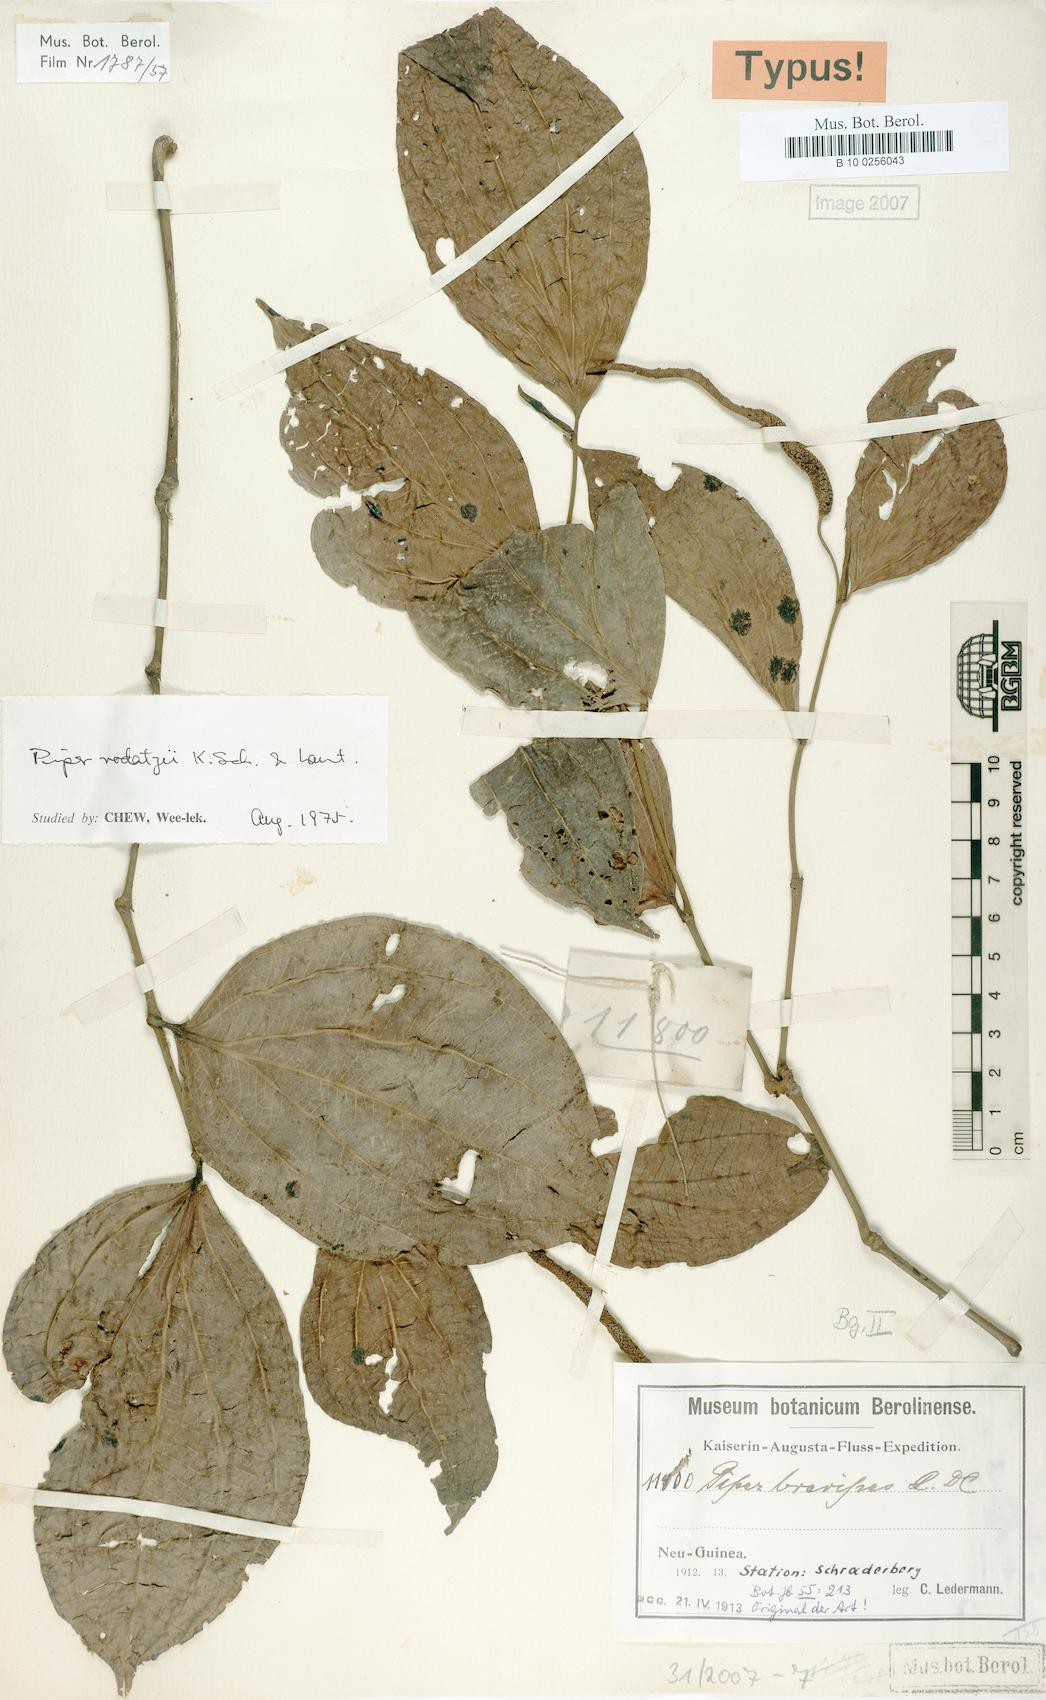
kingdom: Plantae
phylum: Tracheophyta
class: Magnoliopsida
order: Piperales
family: Piperaceae
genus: Piper
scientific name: Piper macropiper
